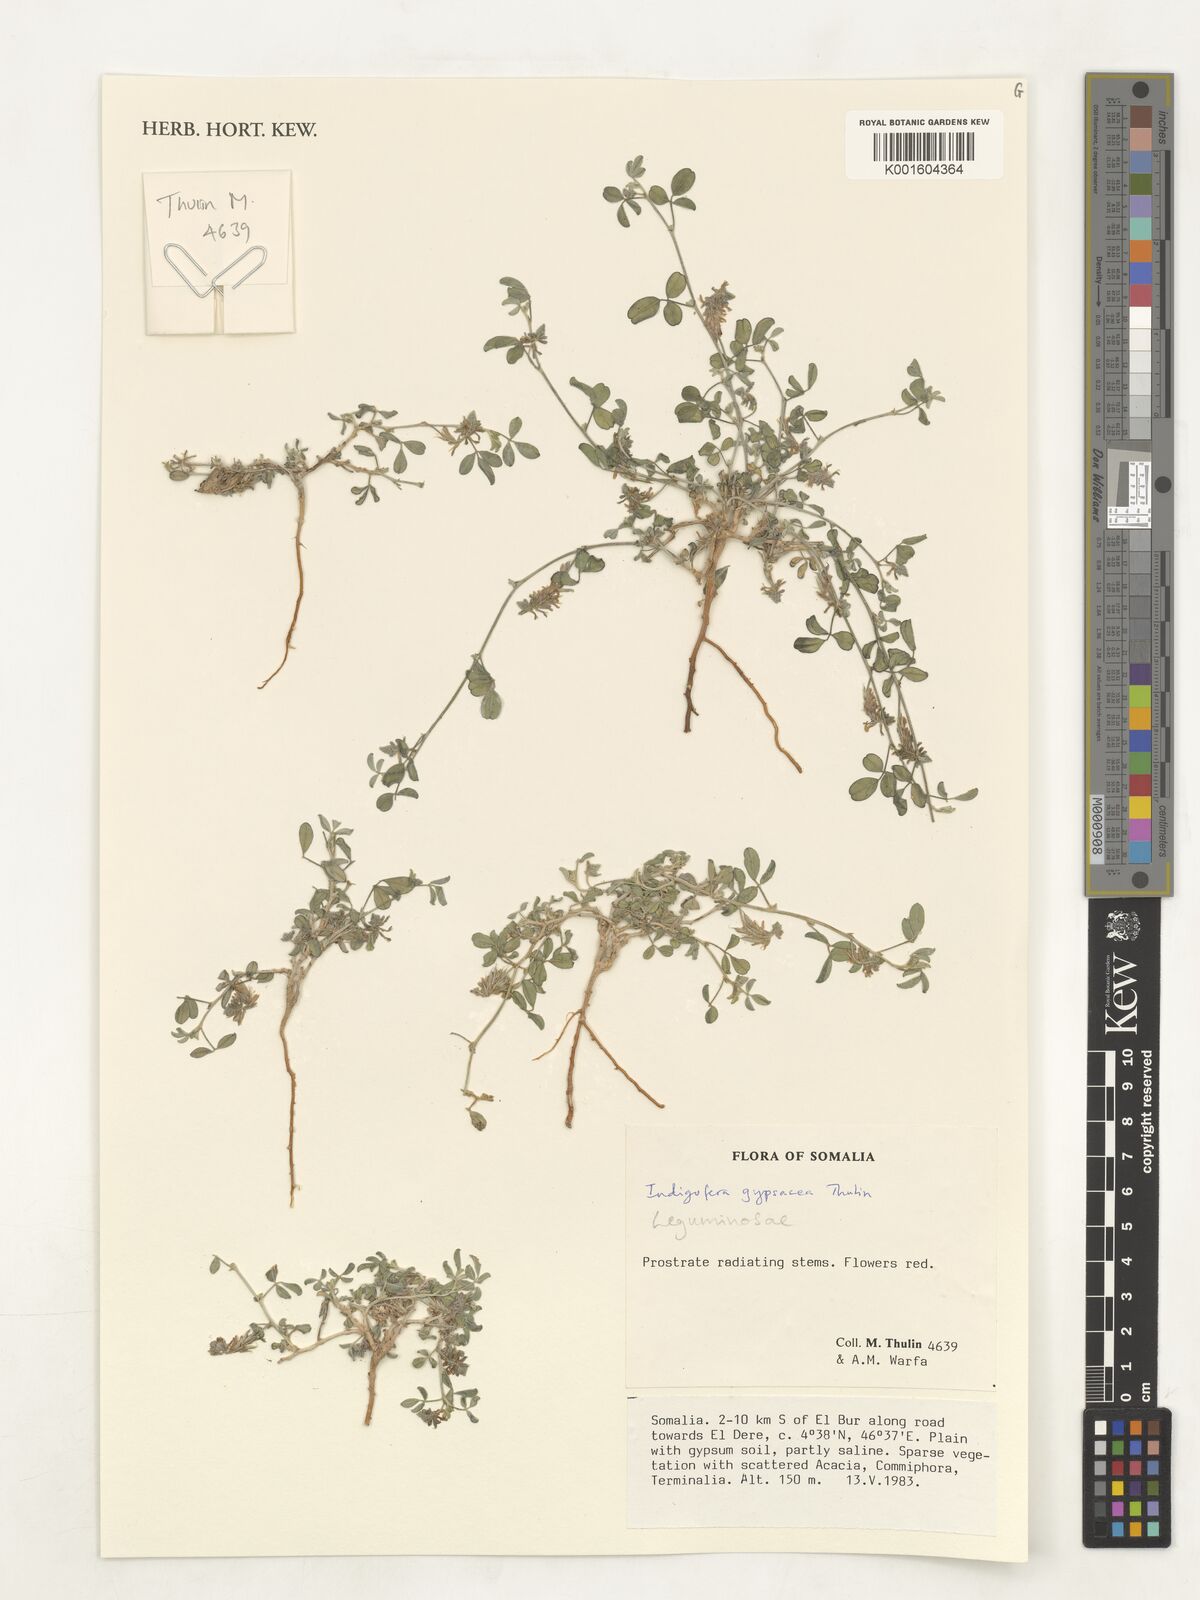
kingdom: Plantae
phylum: Tracheophyta
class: Magnoliopsida
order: Fabales
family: Fabaceae
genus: Indigofera
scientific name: Indigofera gypsacea
